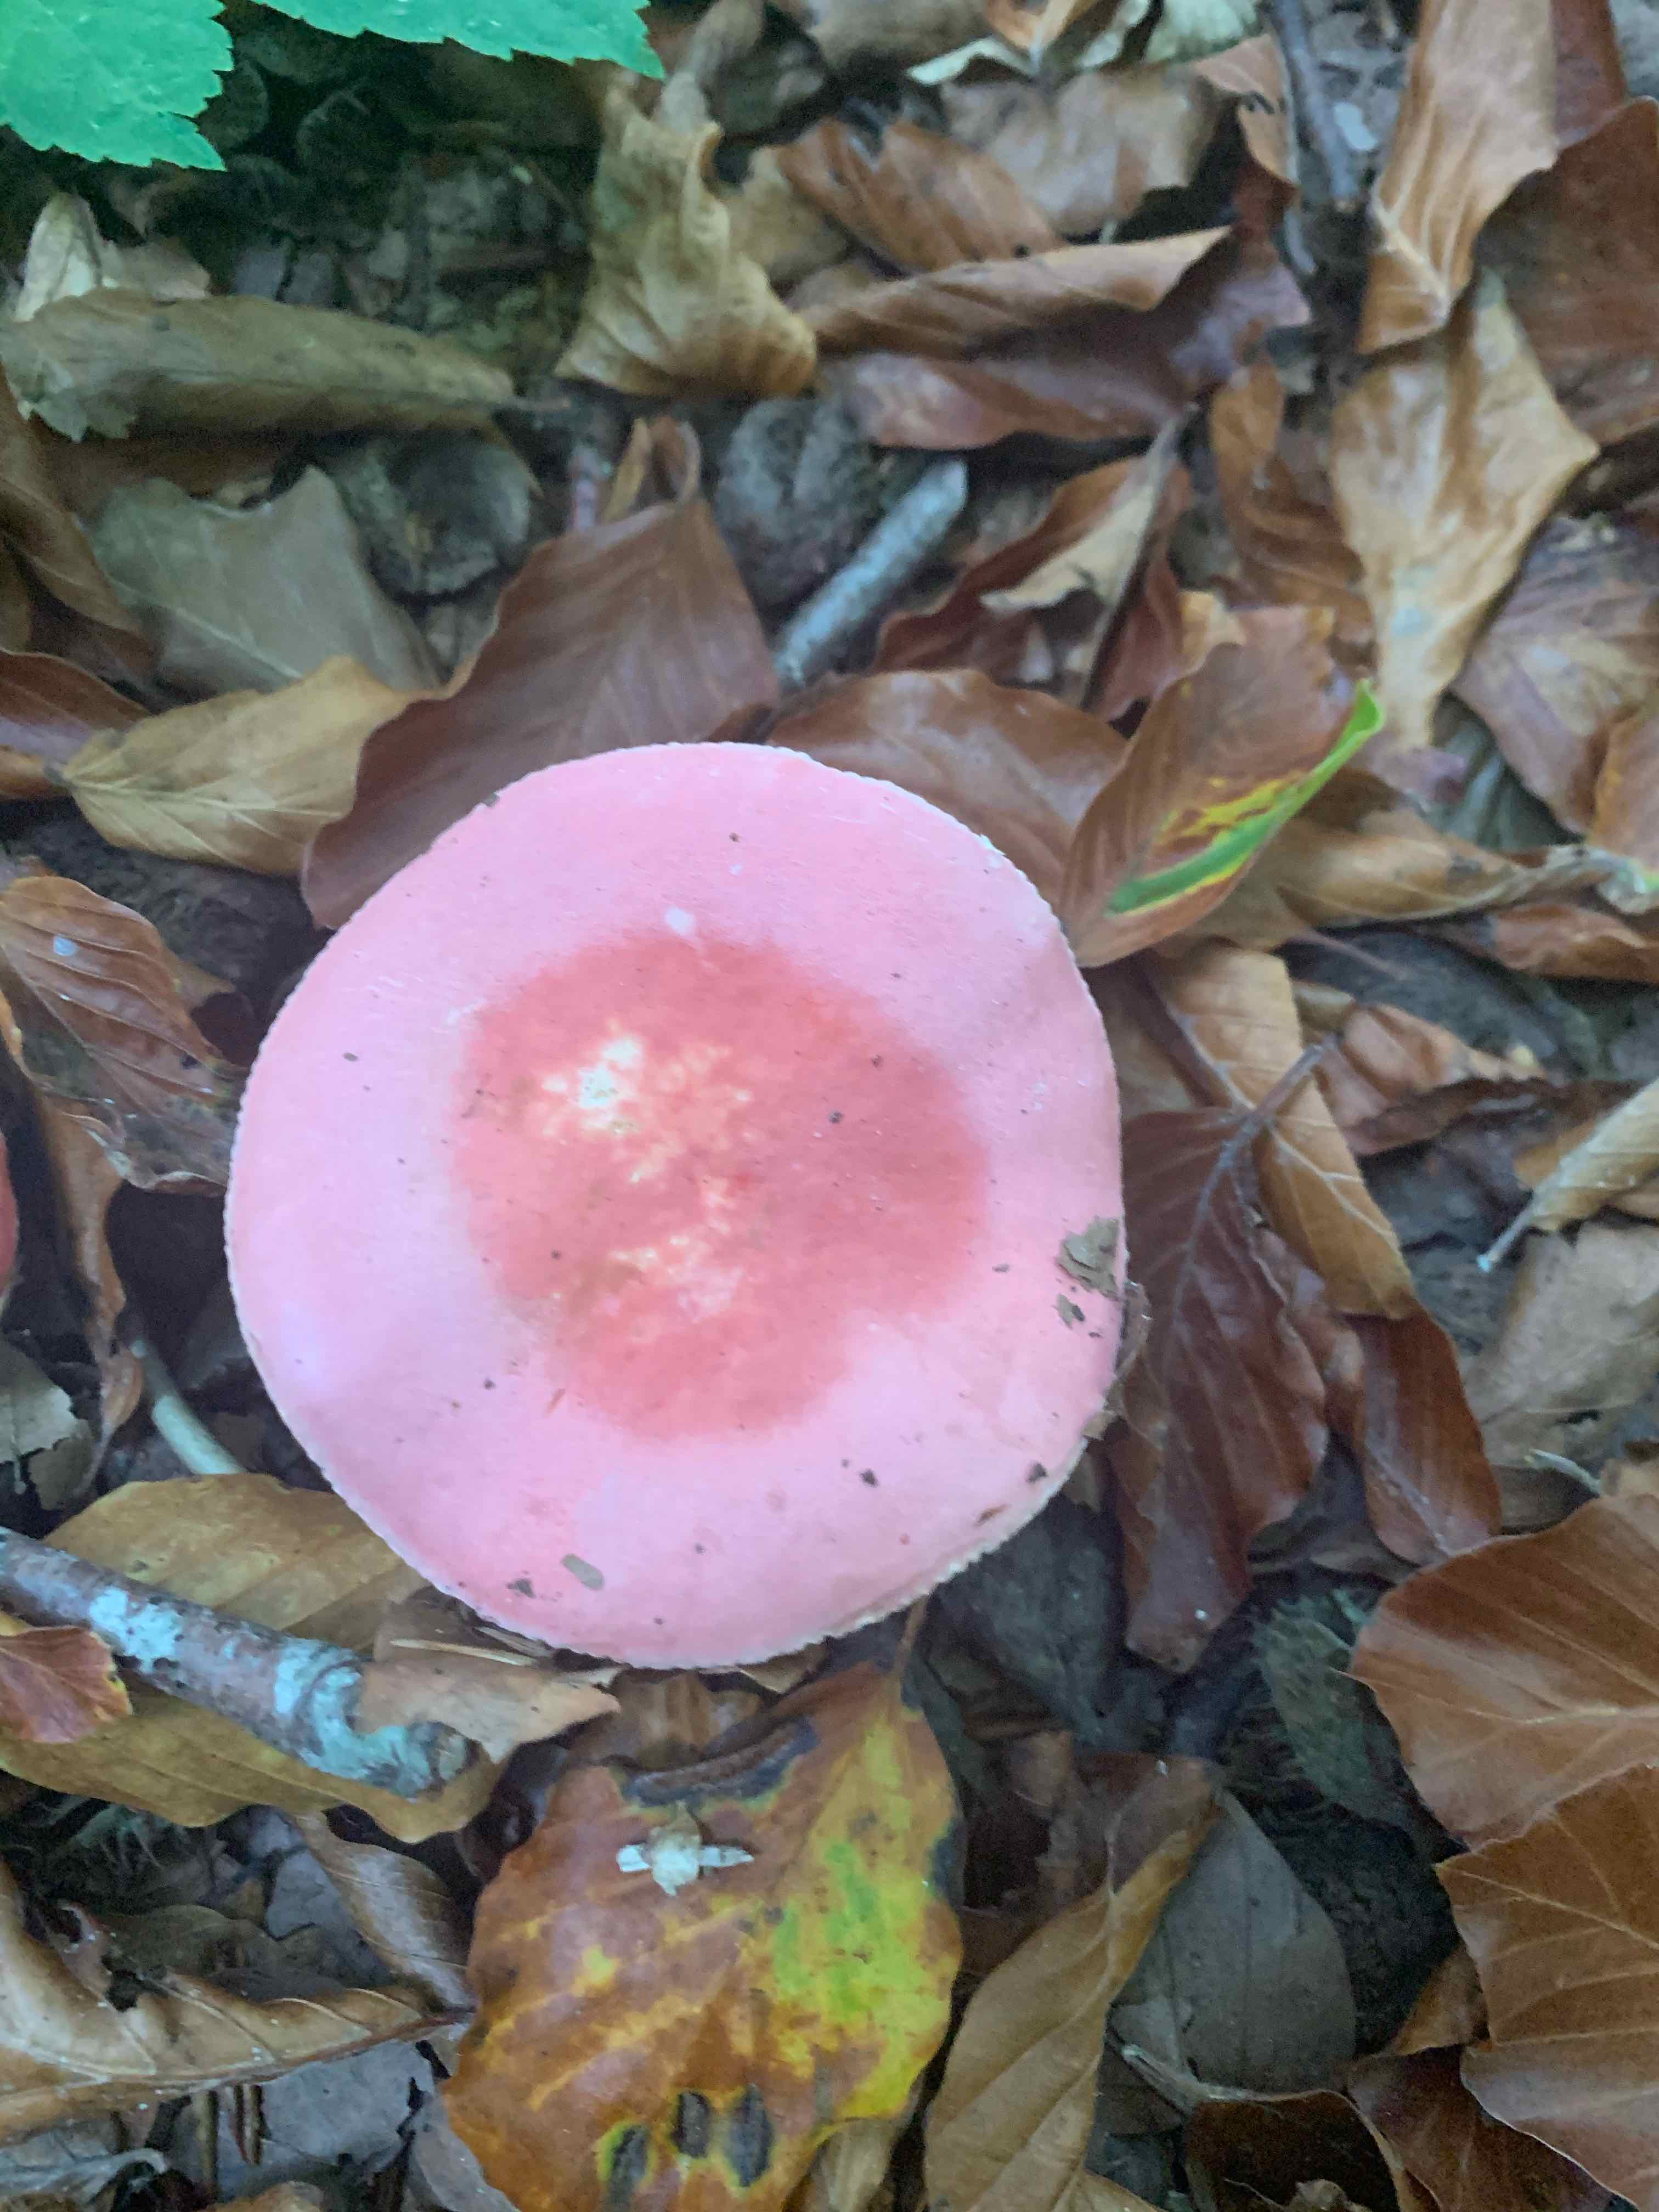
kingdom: Fungi
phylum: Basidiomycota
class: Agaricomycetes
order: Russulales
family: Russulaceae
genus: Russula
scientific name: Russula rosea
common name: fastkødet skørhat
